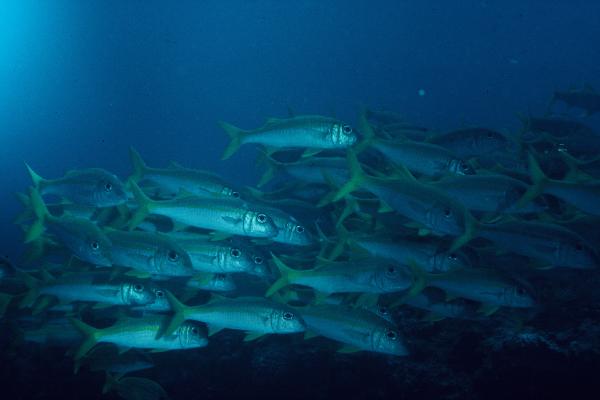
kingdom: Animalia
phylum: Chordata
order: Perciformes
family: Mullidae
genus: Mulloidichthys
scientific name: Mulloidichthys vanicolensis
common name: Yellowfin goatfish
